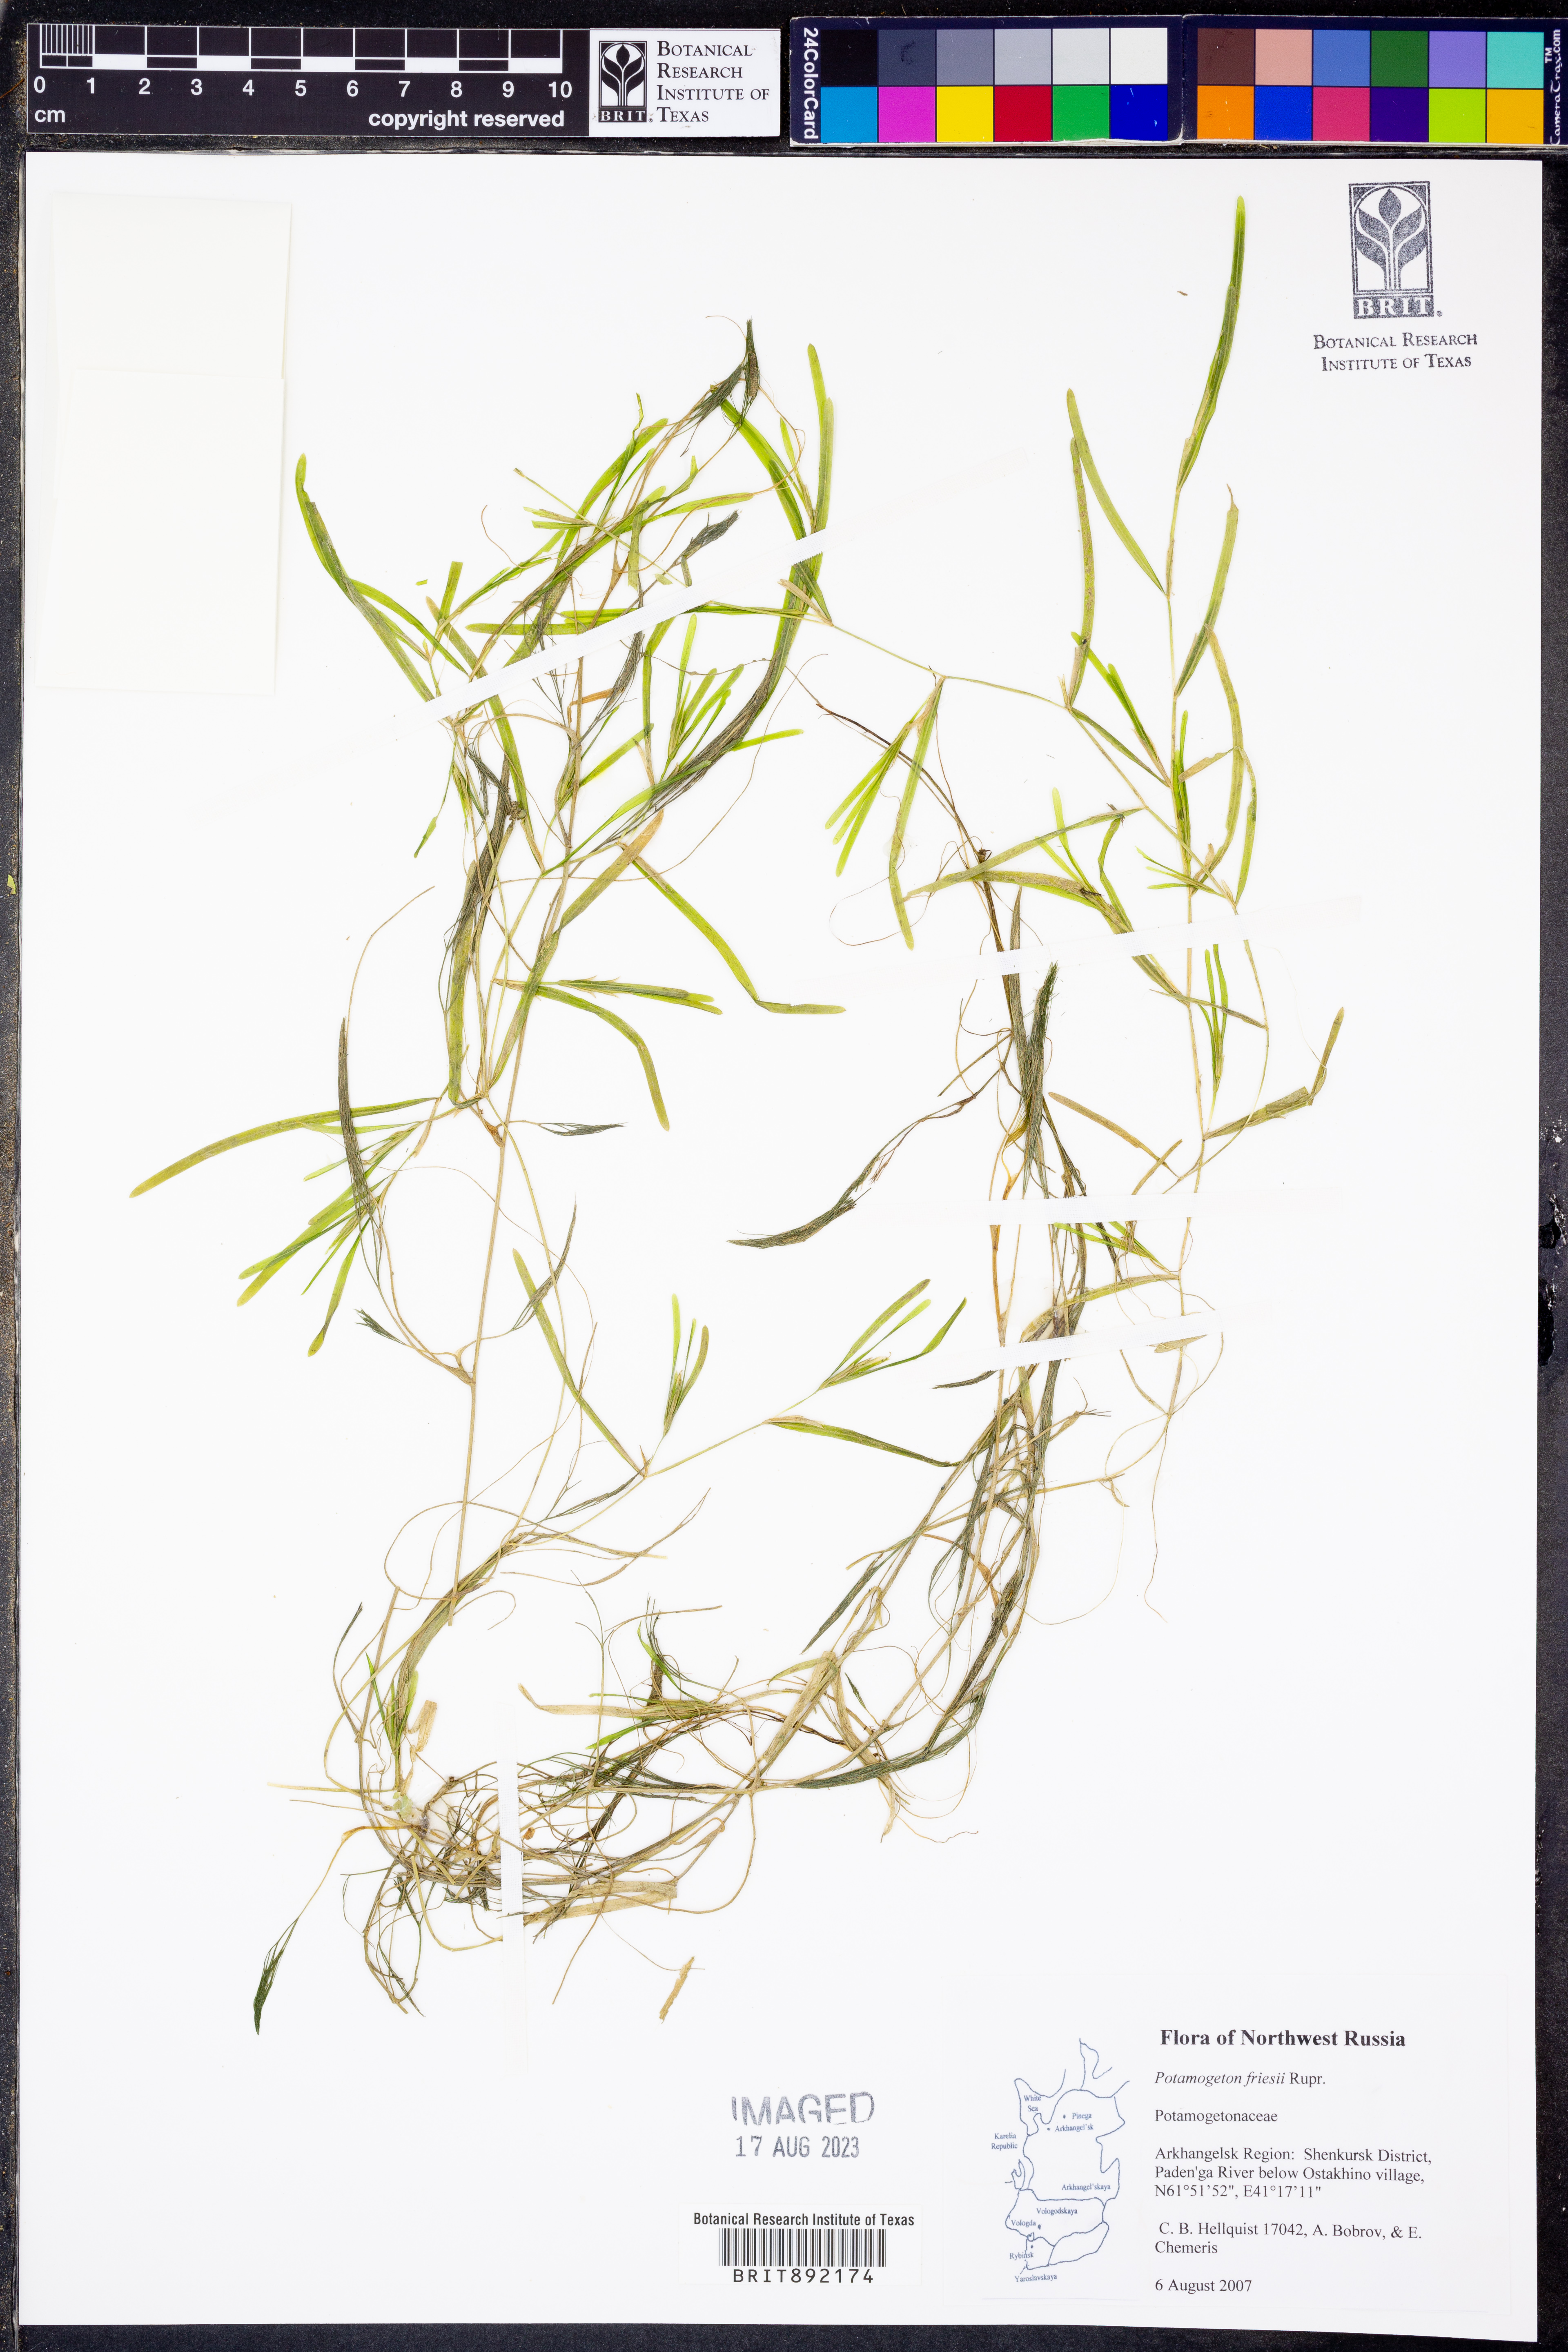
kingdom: Plantae
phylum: Tracheophyta
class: Liliopsida
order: Alismatales
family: Potamogetonaceae
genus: Potamogeton
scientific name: Potamogeton friesii
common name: Flat-stalked pondweed
